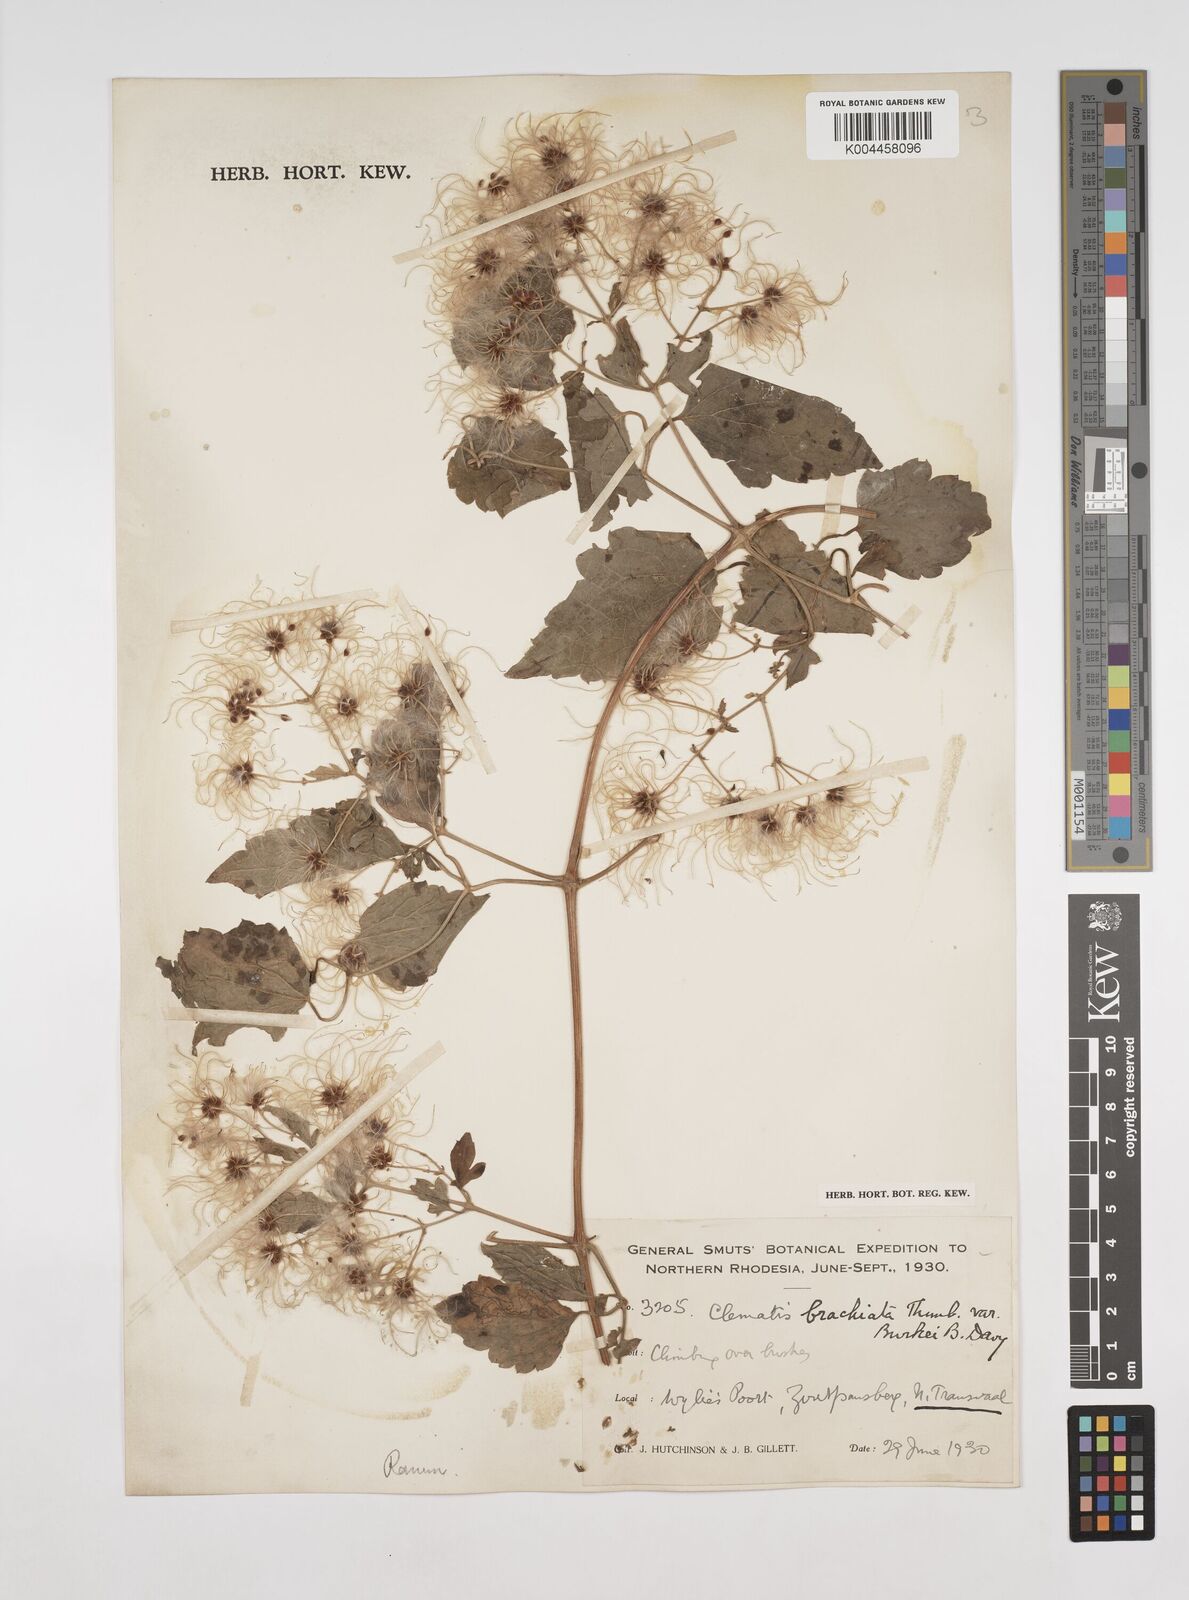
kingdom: Plantae
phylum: Tracheophyta
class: Magnoliopsida
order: Ranunculales
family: Ranunculaceae
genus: Clematis
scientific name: Clematis brachiata
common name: Traveler's-joy
